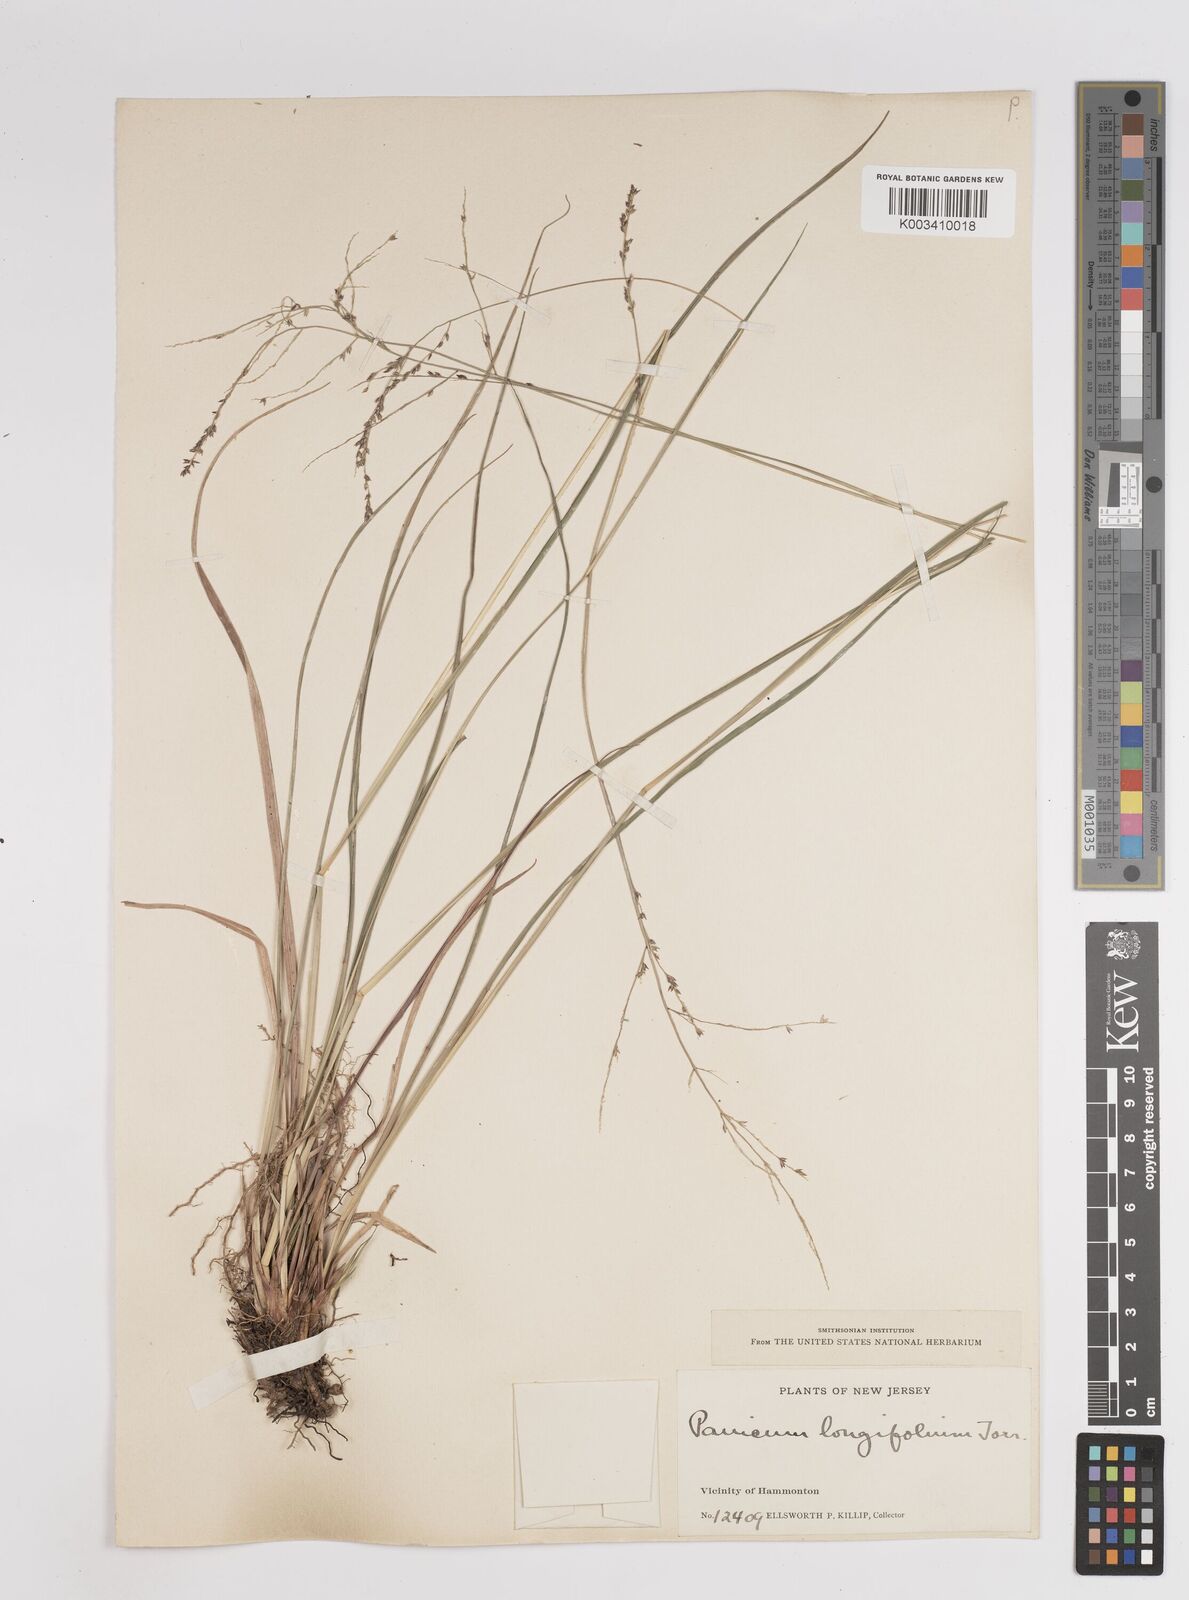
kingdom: Plantae
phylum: Tracheophyta
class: Liliopsida
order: Poales
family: Poaceae
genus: Coleataenia
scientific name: Coleataenia longifolia
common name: Long-leaved panicgrass
